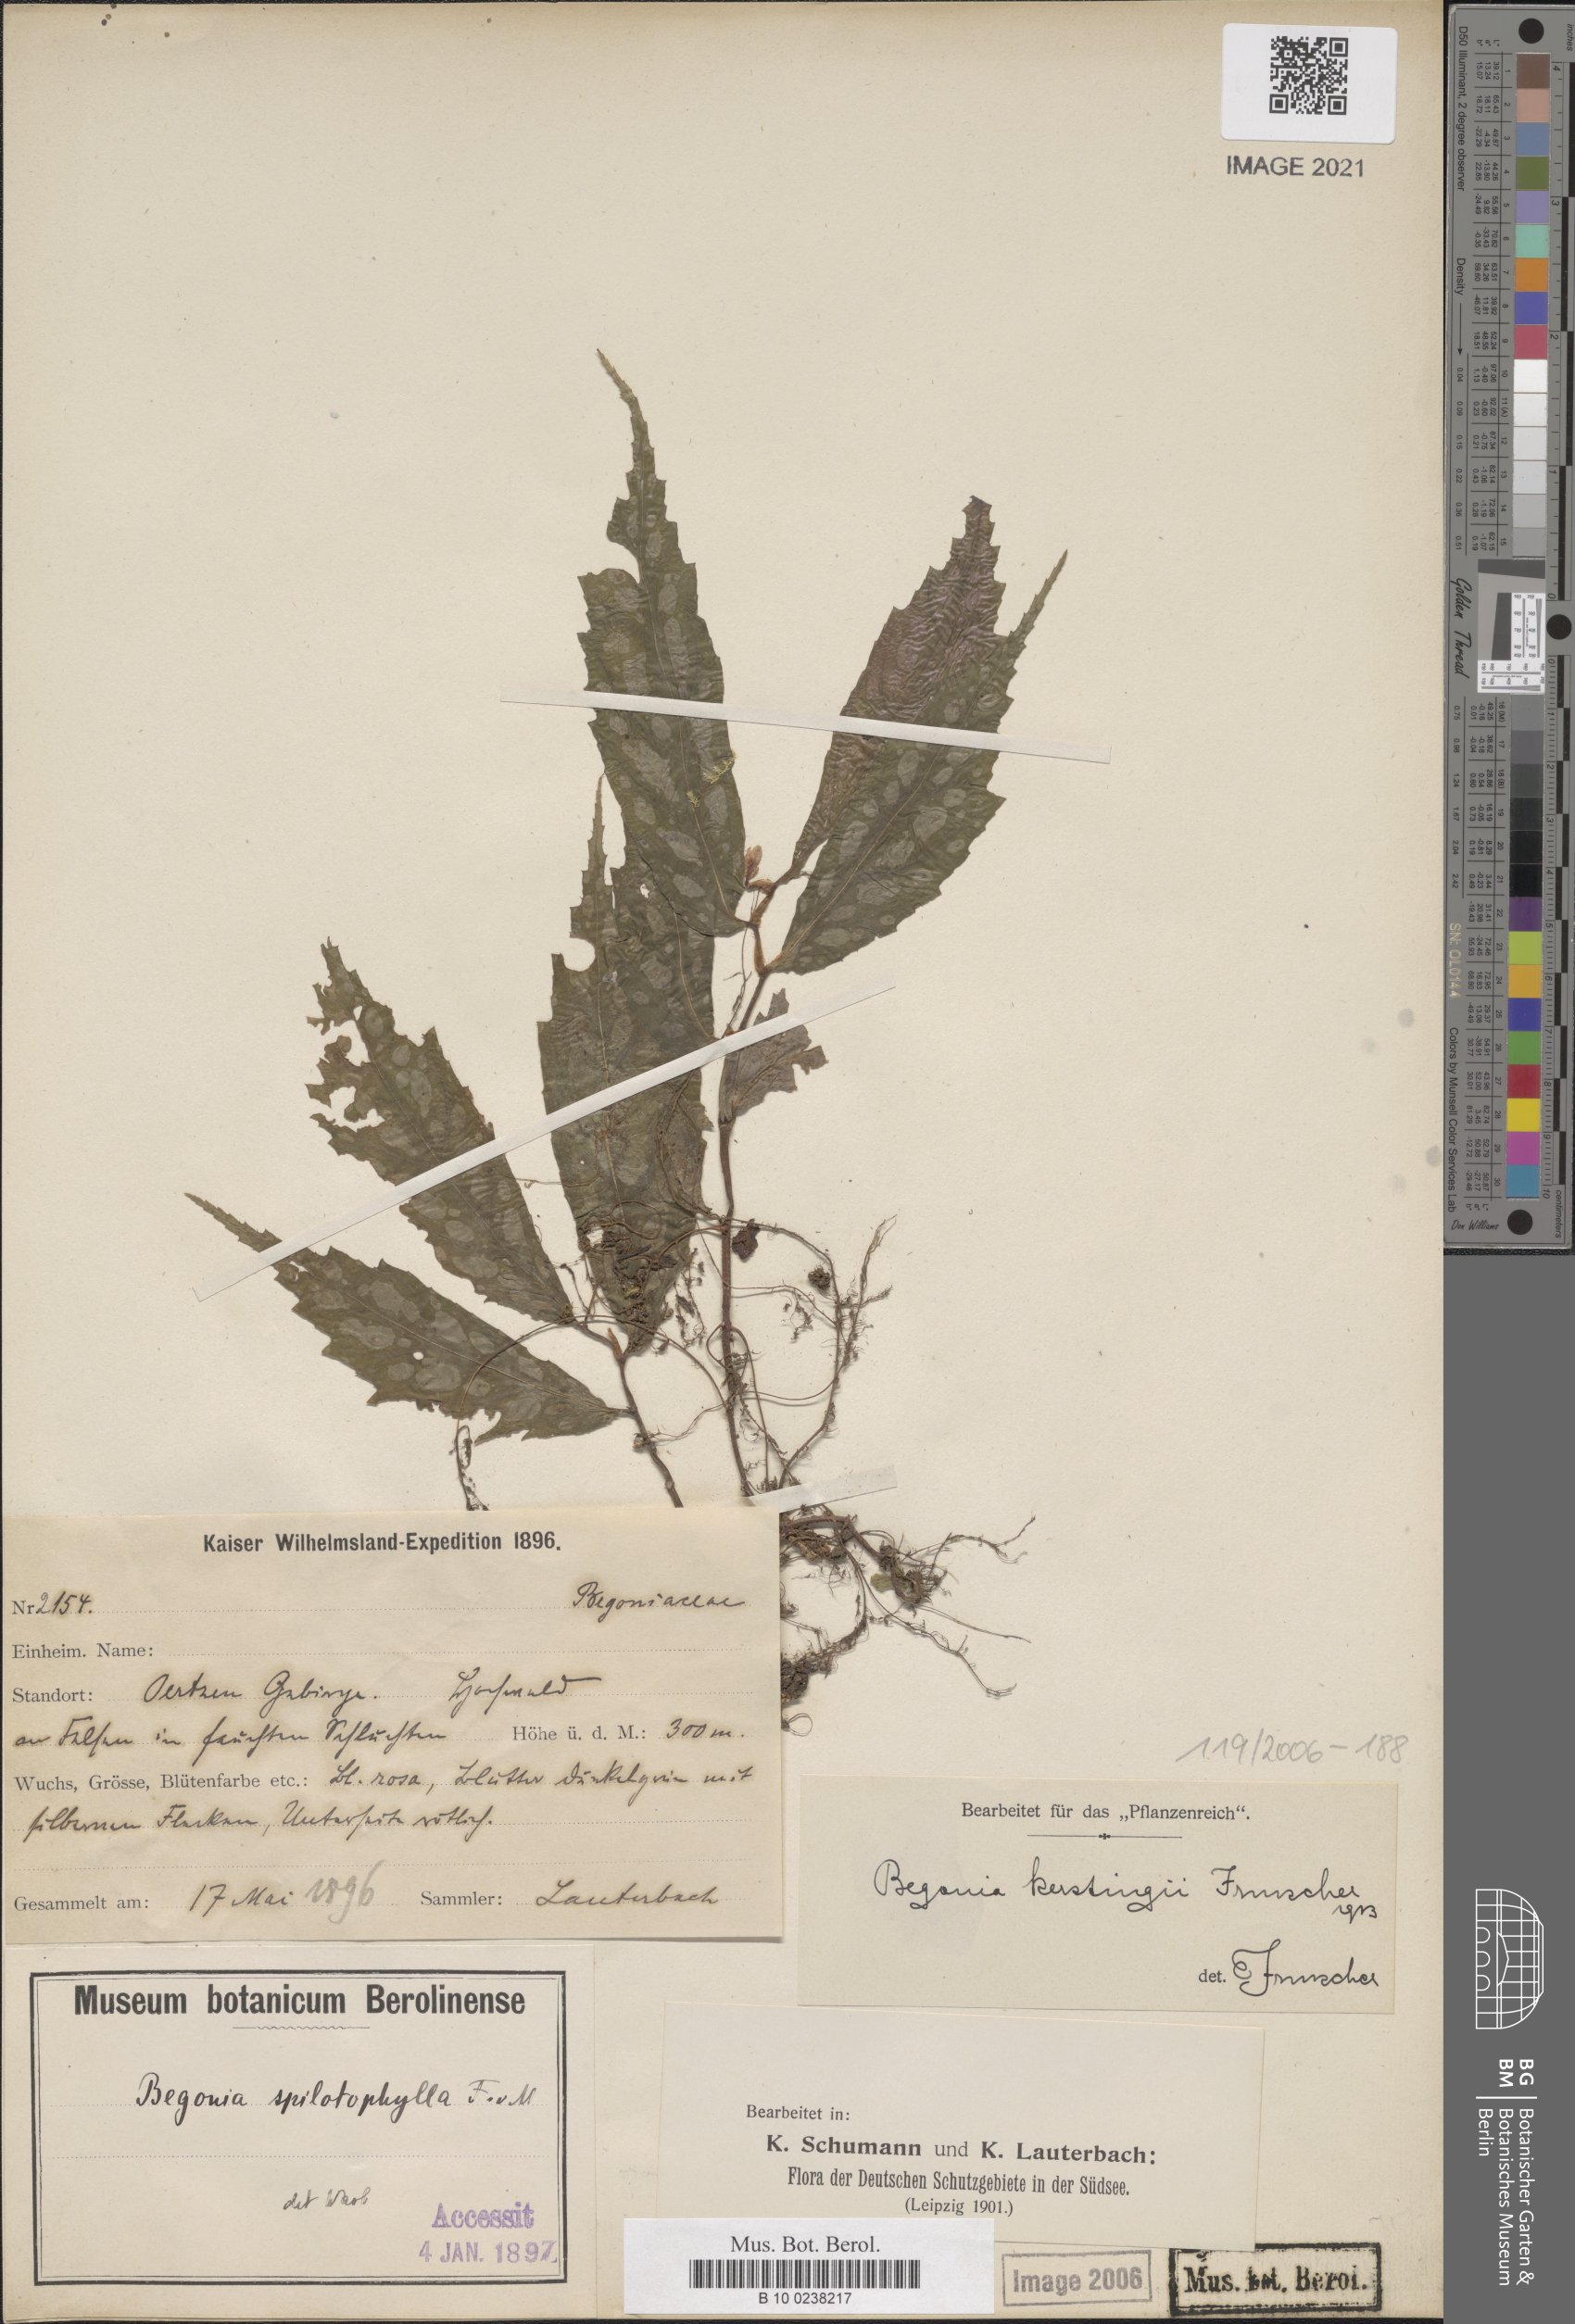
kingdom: Plantae
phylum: Tracheophyta
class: Magnoliopsida
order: Cucurbitales
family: Begoniaceae
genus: Begonia
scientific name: Begonia kerstingii
